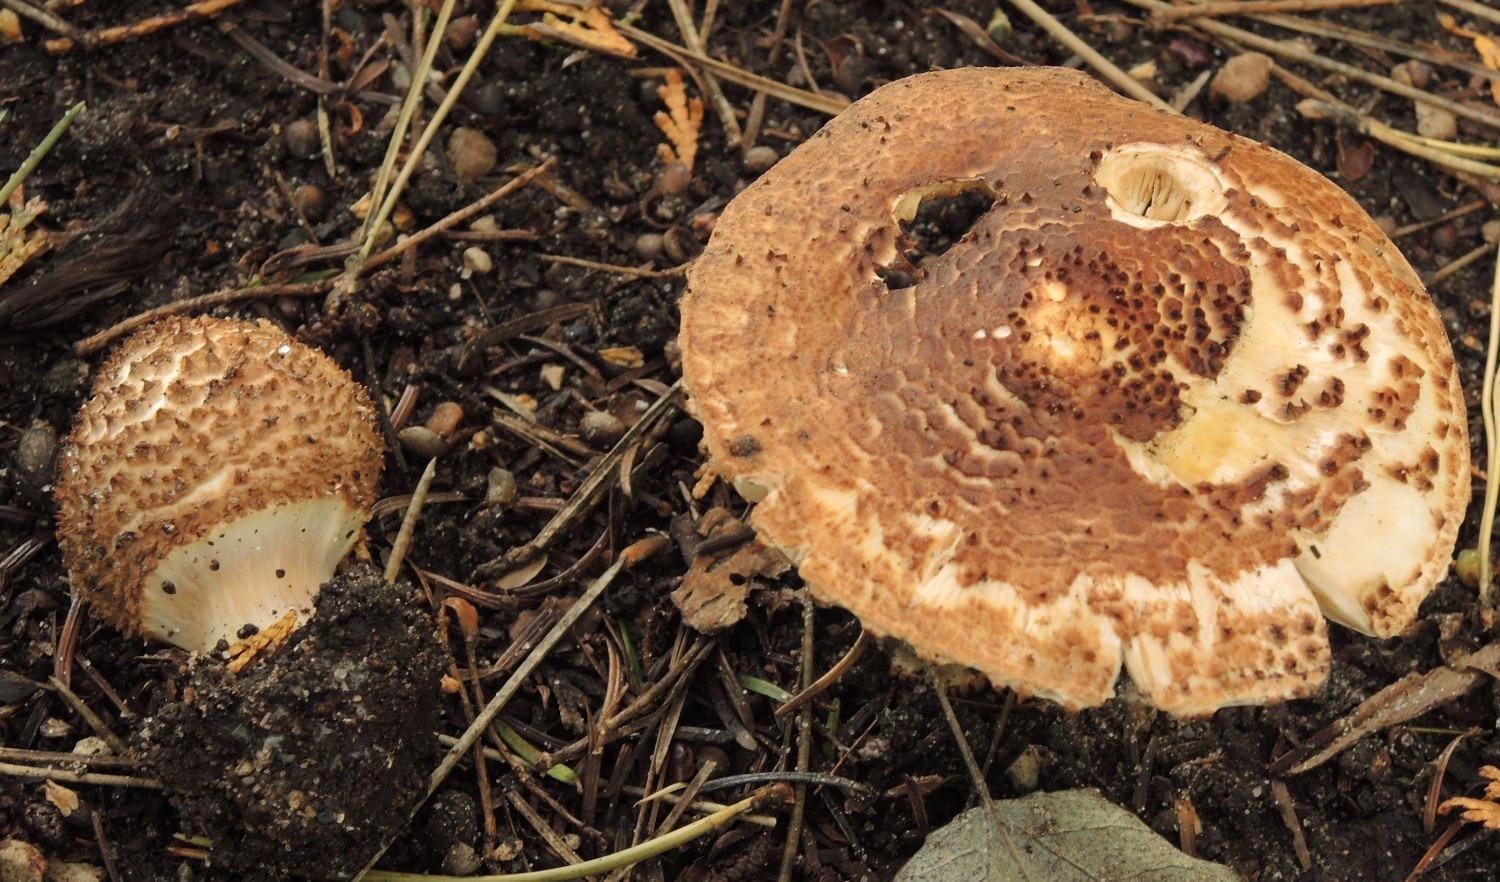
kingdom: Fungi
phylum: Basidiomycota
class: Agaricomycetes
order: Agaricales
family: Agaricaceae
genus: Echinoderma
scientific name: Echinoderma asperum
